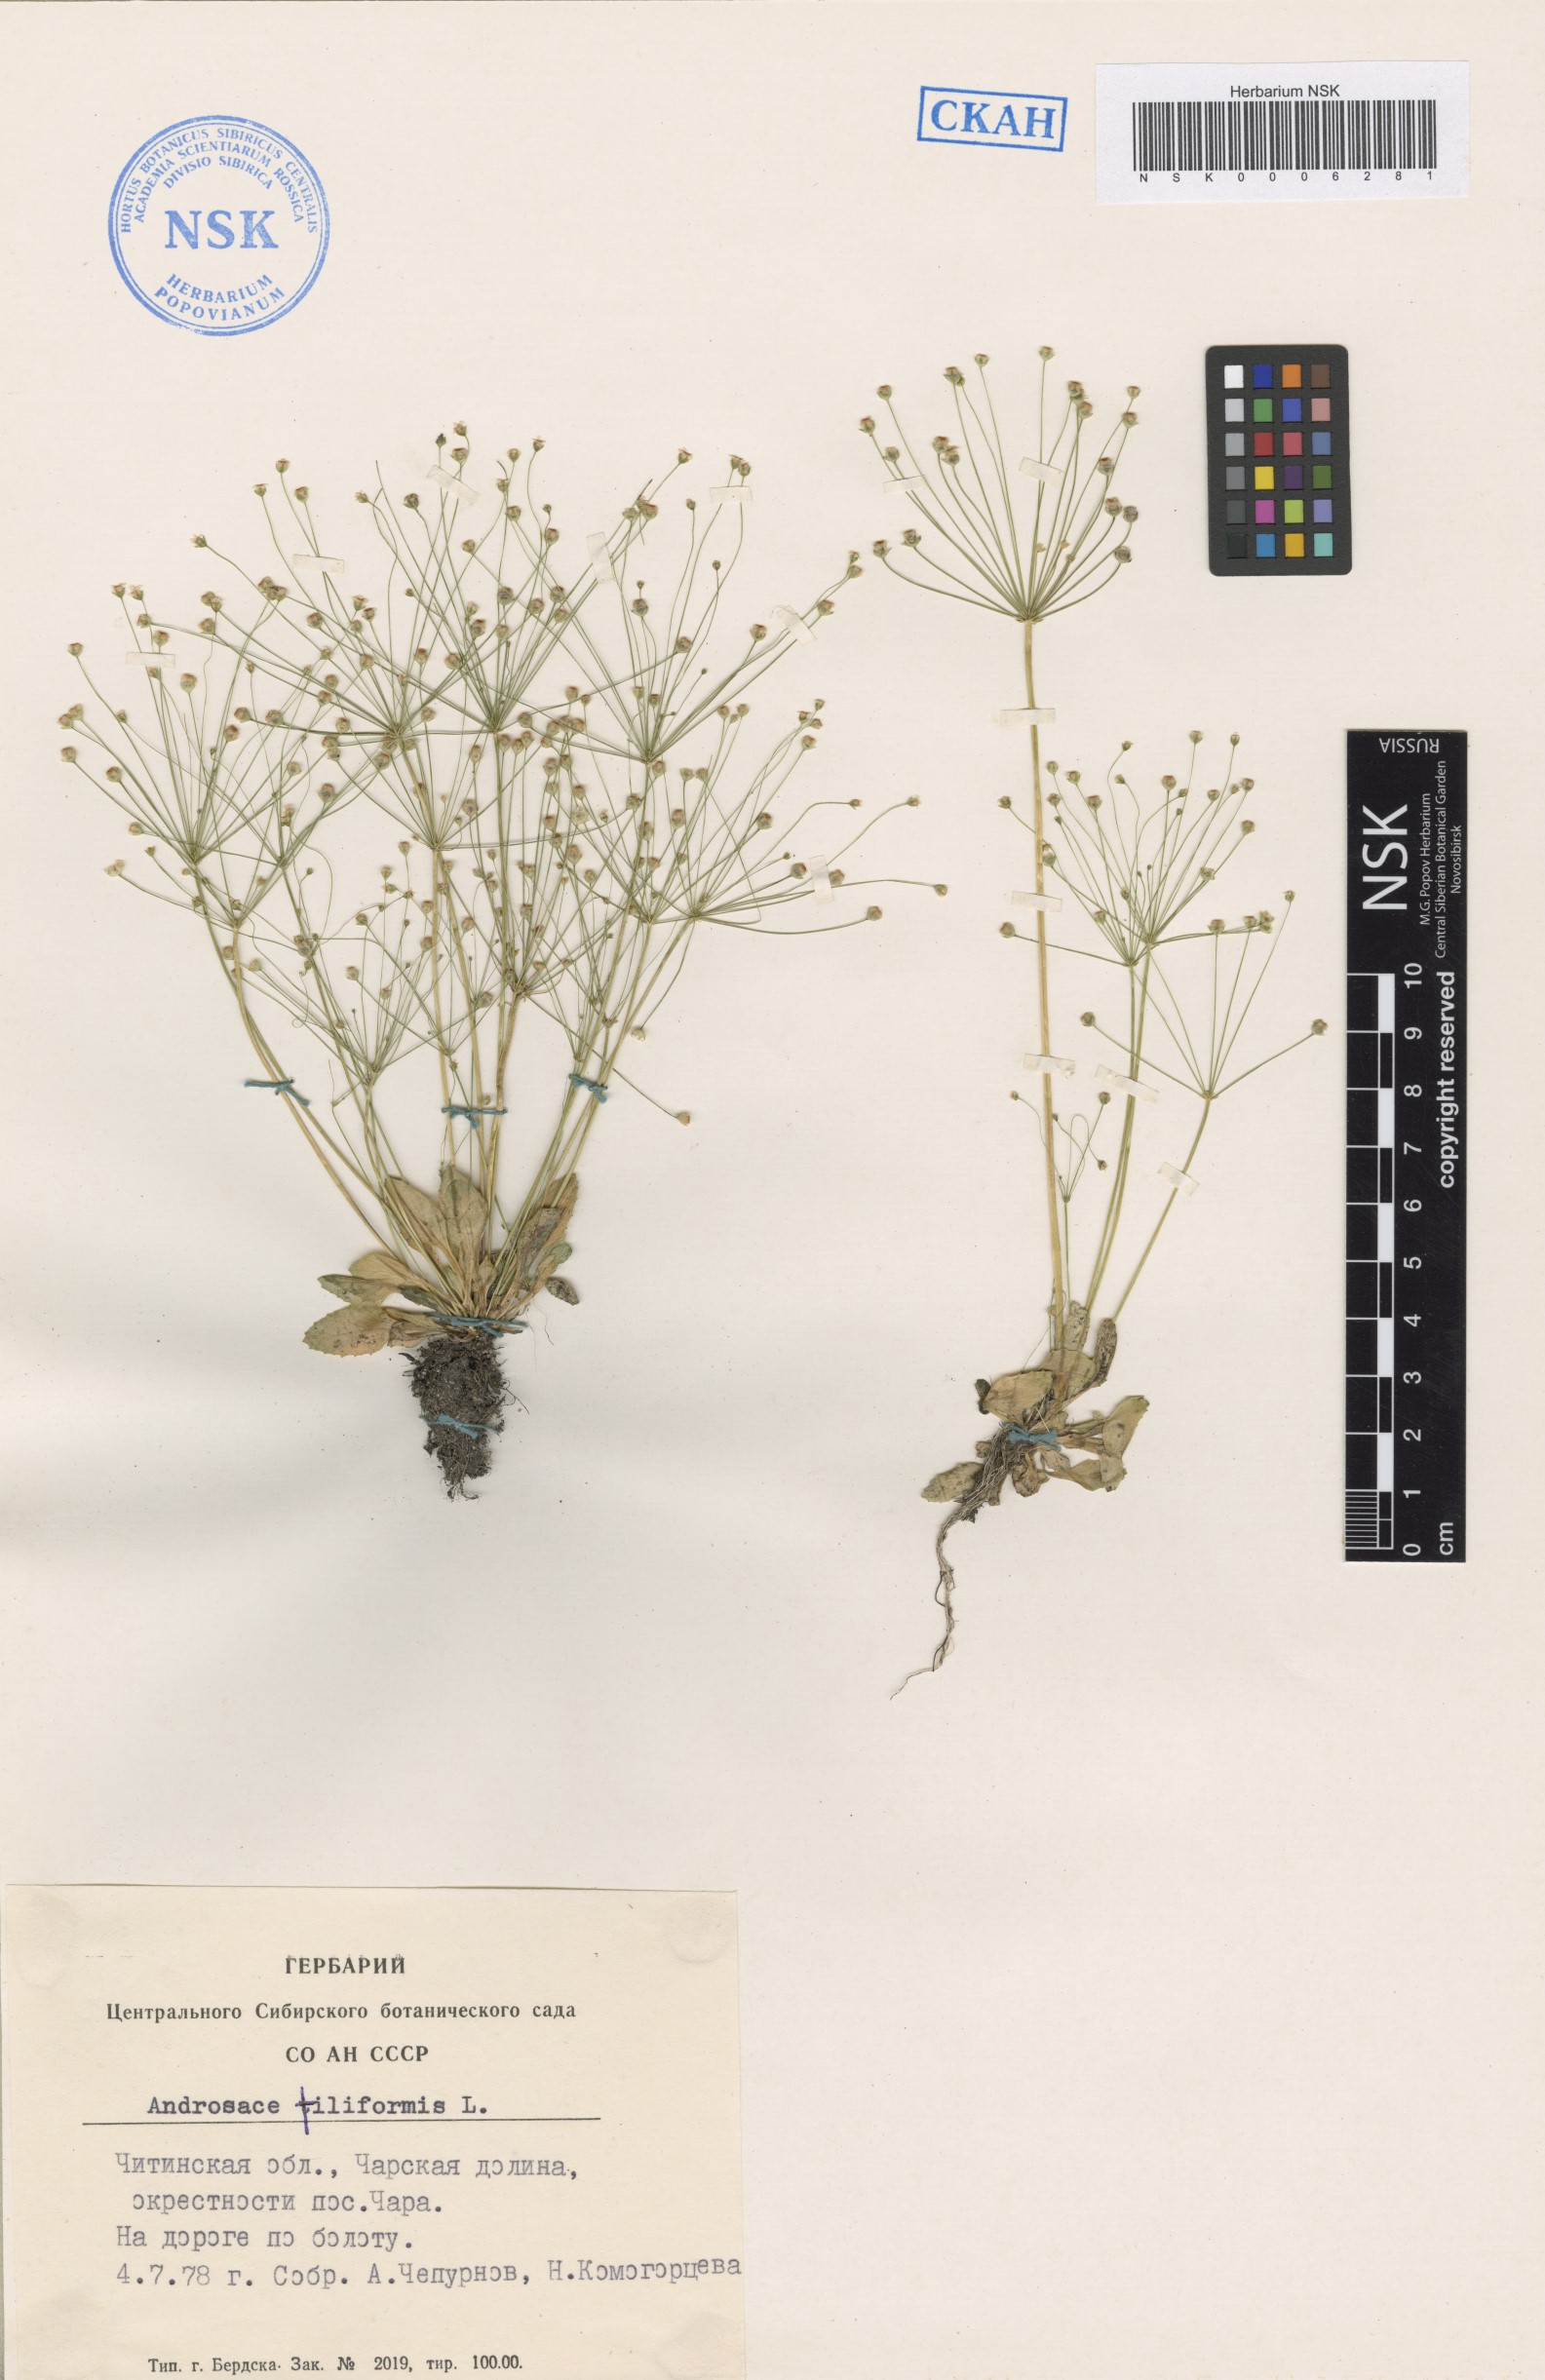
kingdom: Plantae
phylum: Tracheophyta
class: Magnoliopsida
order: Ericales
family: Primulaceae
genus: Androsace
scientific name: Androsace filiformis
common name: Filiform rock jasmine
